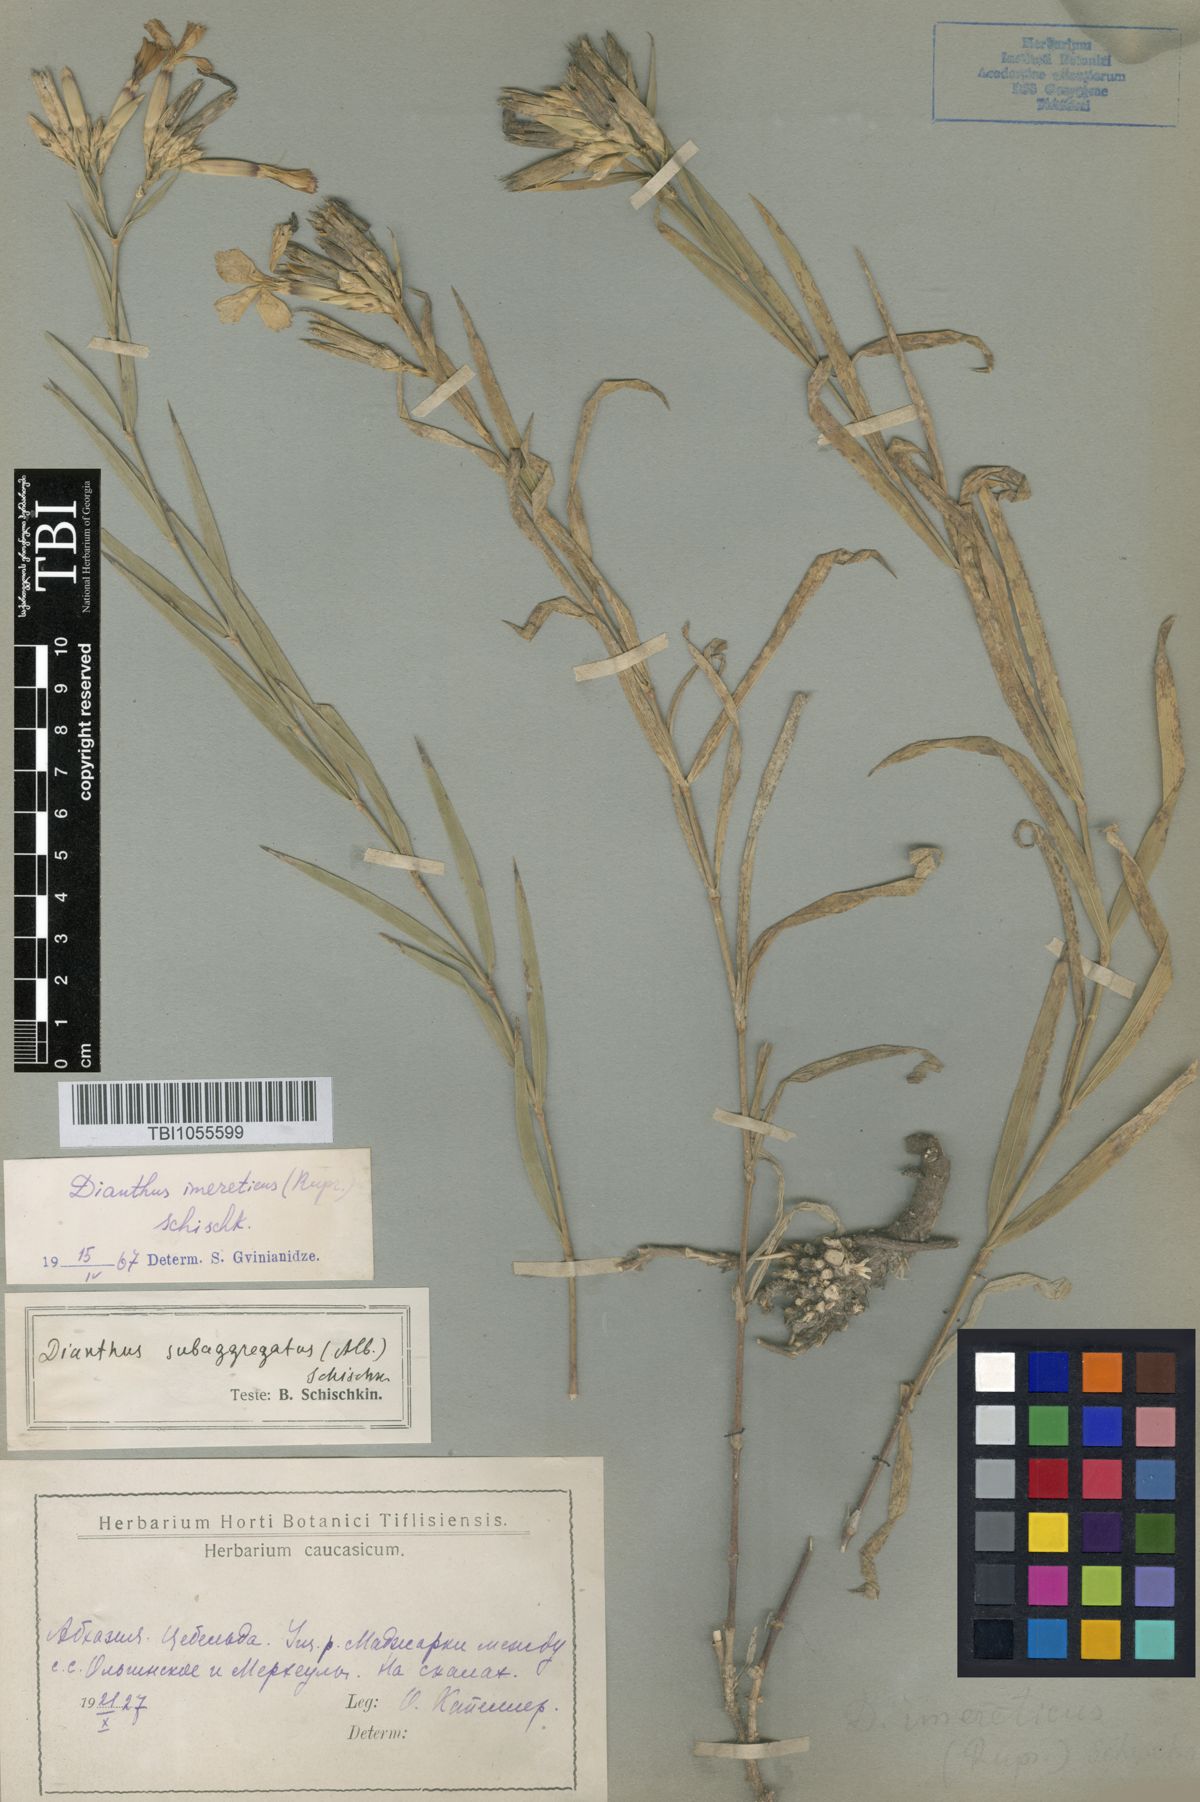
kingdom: Plantae
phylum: Tracheophyta
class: Magnoliopsida
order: Caryophyllales
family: Caryophyllaceae
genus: Dianthus
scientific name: Dianthus imereticus
